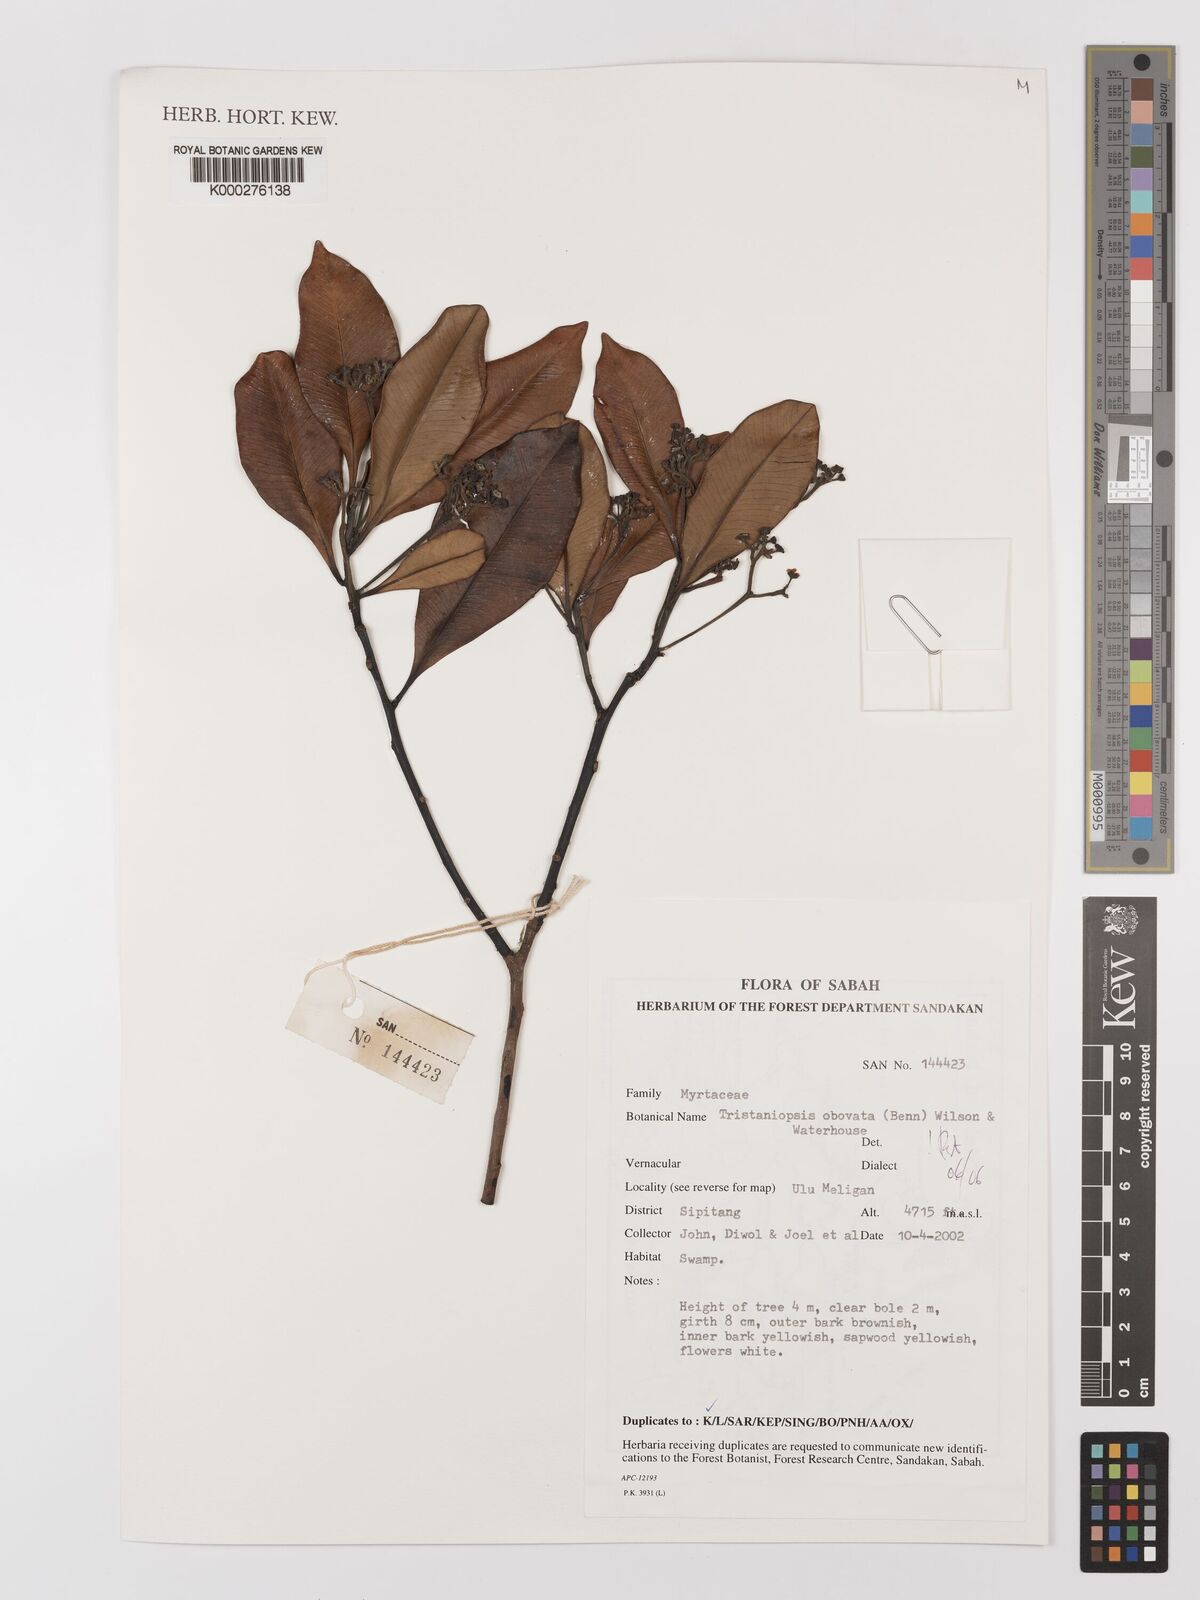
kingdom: Plantae
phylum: Tracheophyta
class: Magnoliopsida
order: Myrtales
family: Myrtaceae
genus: Tristaniopsis
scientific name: Tristaniopsis obovata
